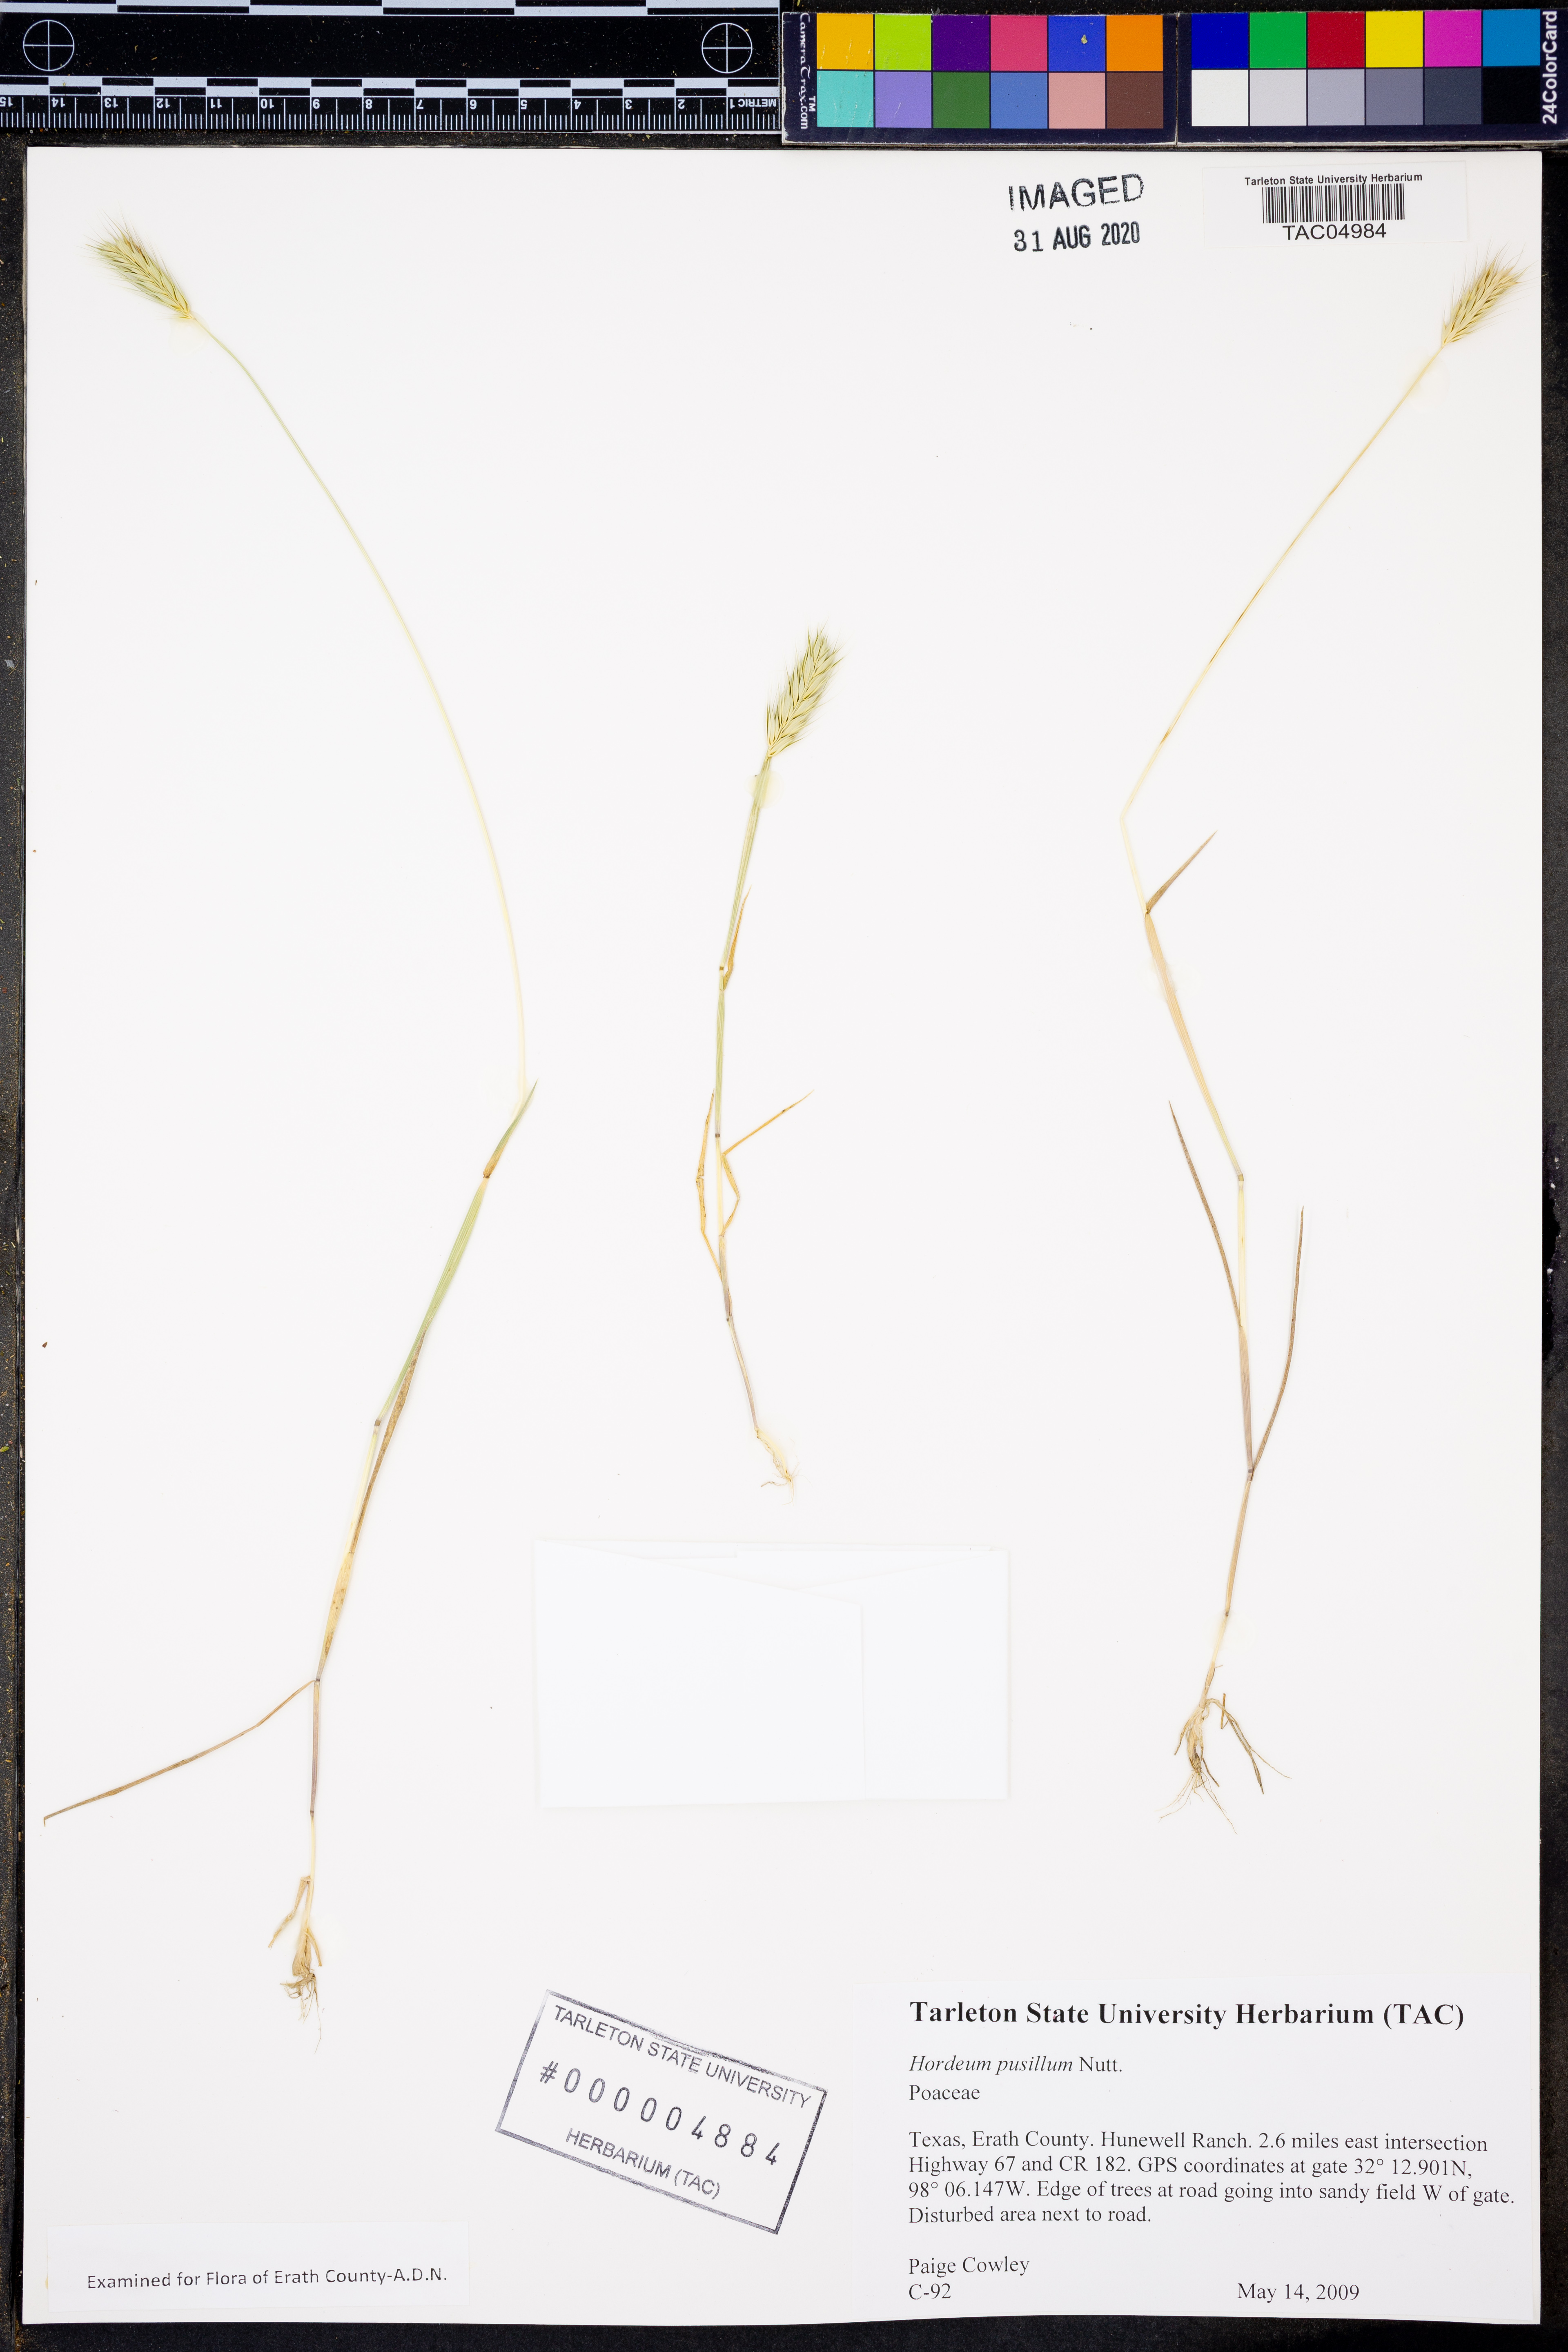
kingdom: Plantae
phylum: Tracheophyta
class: Liliopsida
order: Poales
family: Poaceae
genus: Hordeum
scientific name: Hordeum pusillum
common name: Little barley
